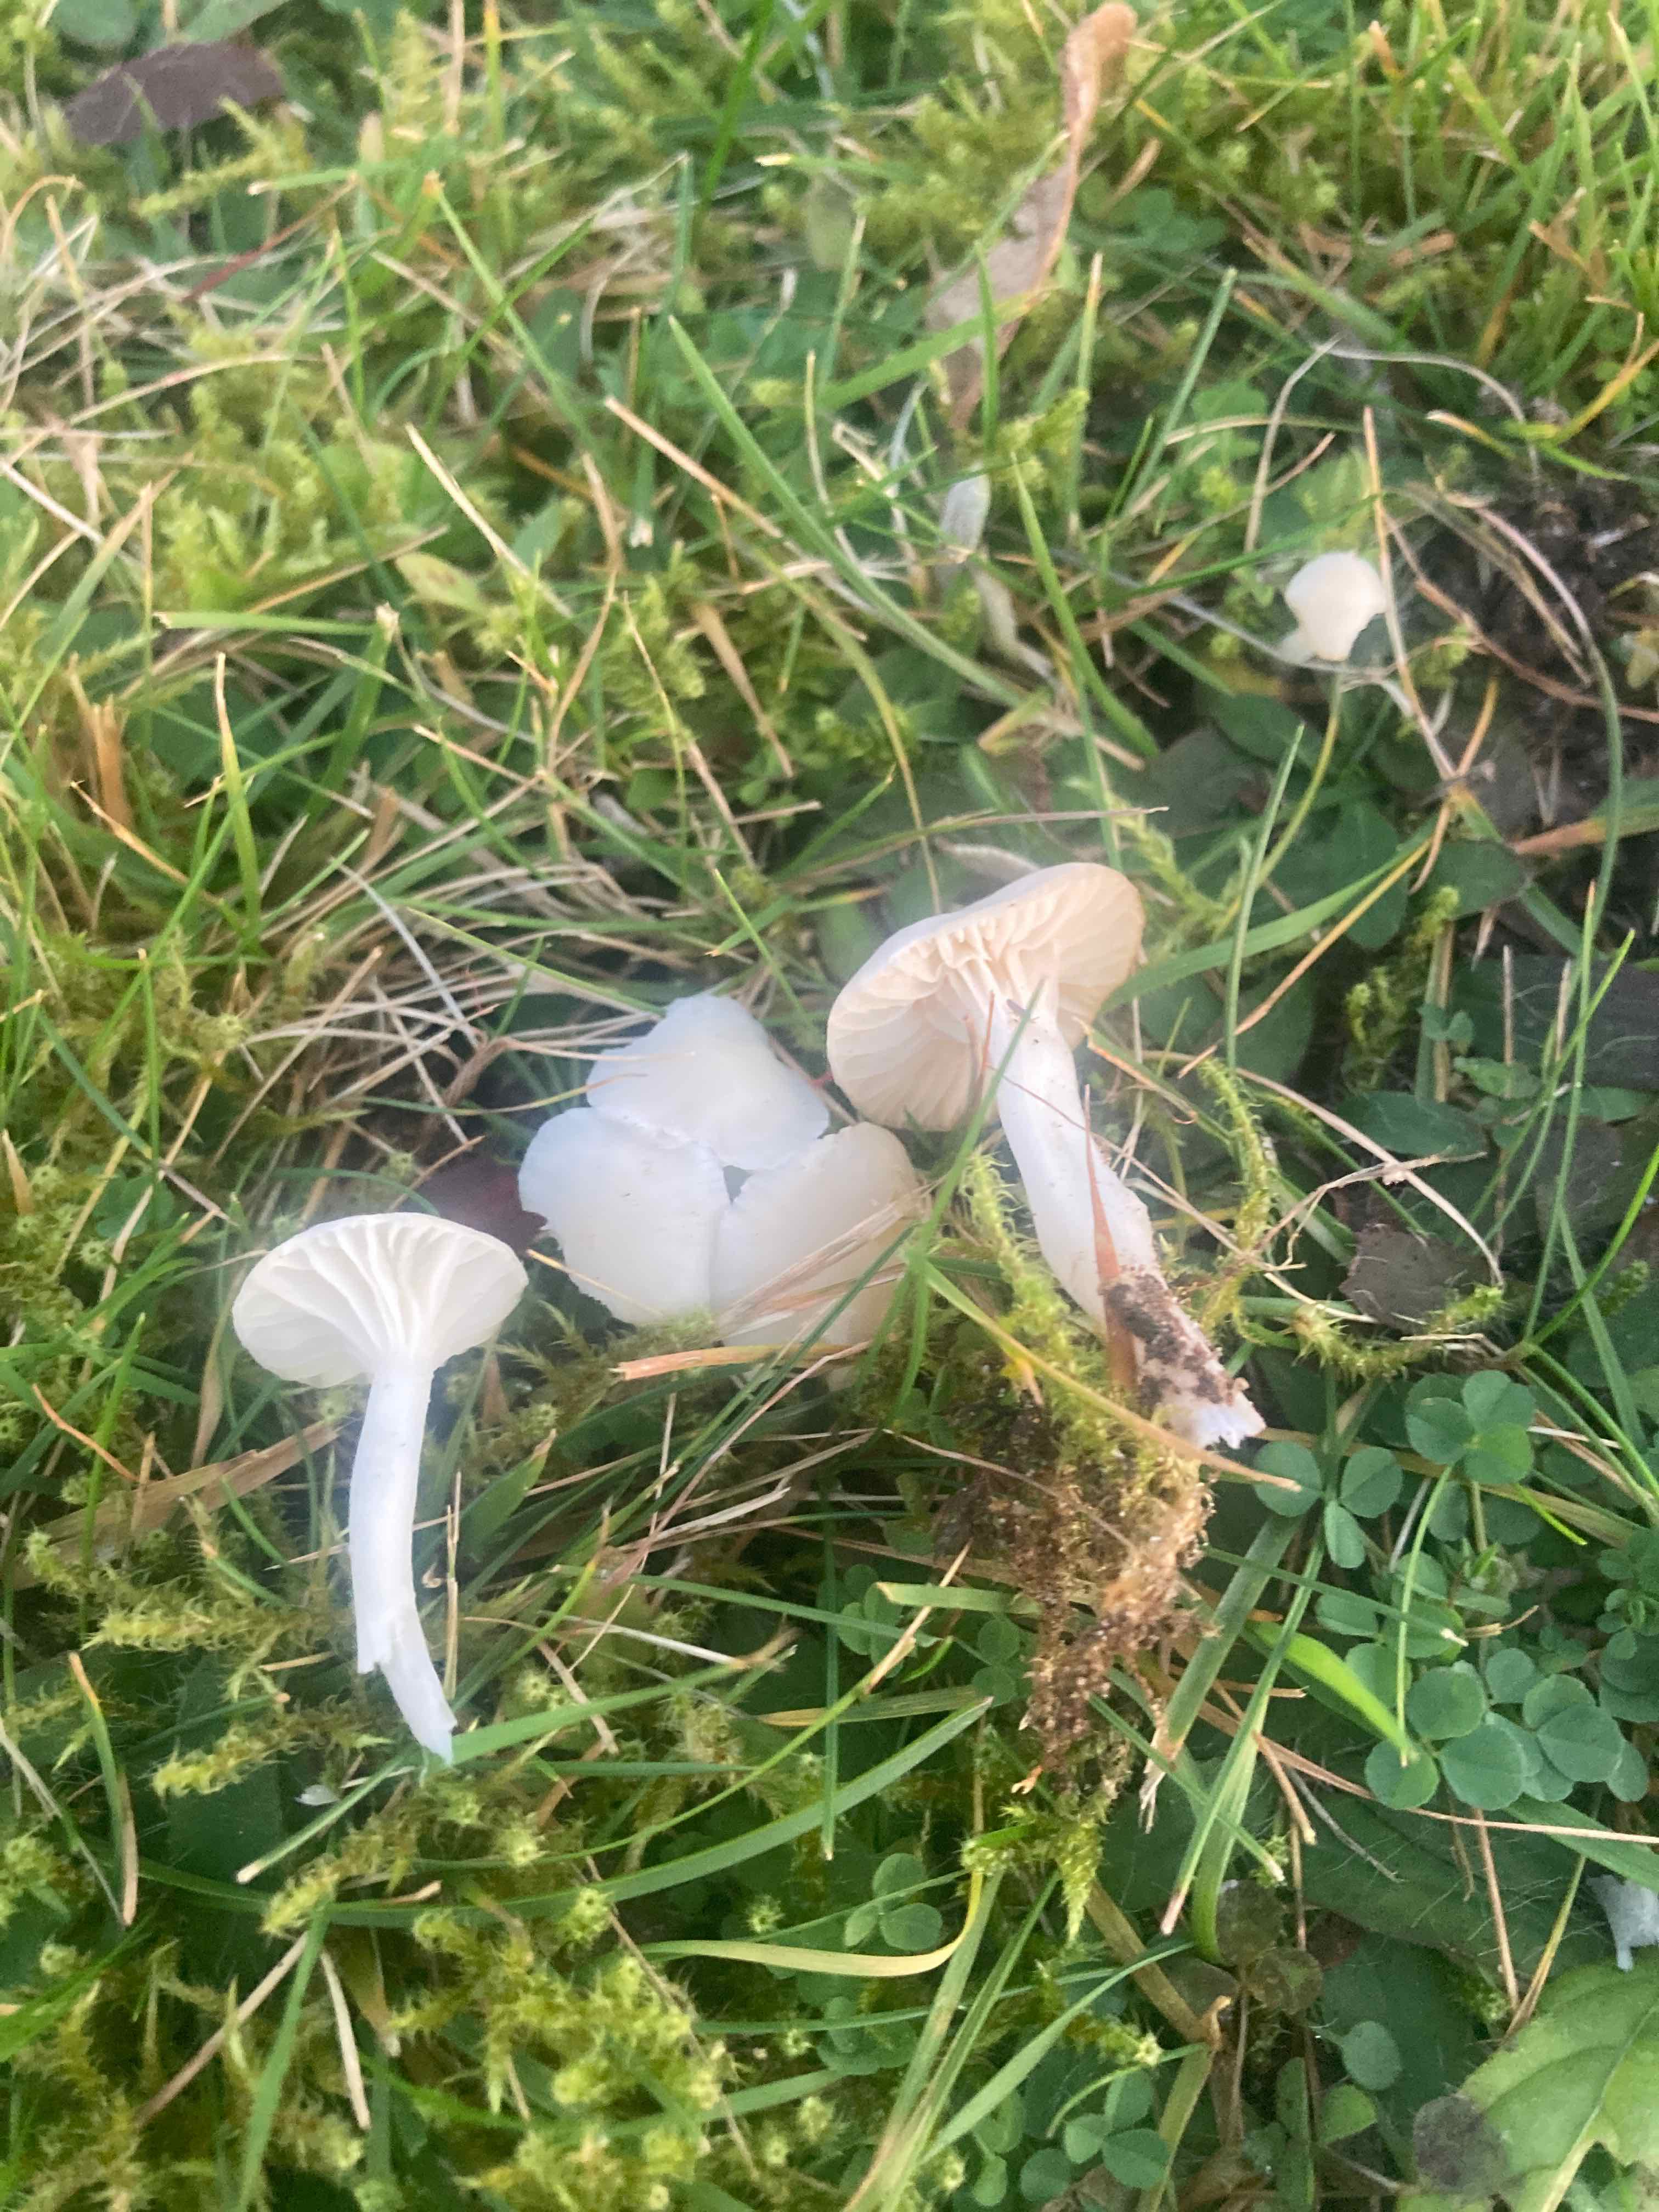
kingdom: Fungi
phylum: Basidiomycota
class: Agaricomycetes
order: Agaricales
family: Hygrophoraceae
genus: Cuphophyllus
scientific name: Cuphophyllus virgineus
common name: snehvid vokshat
